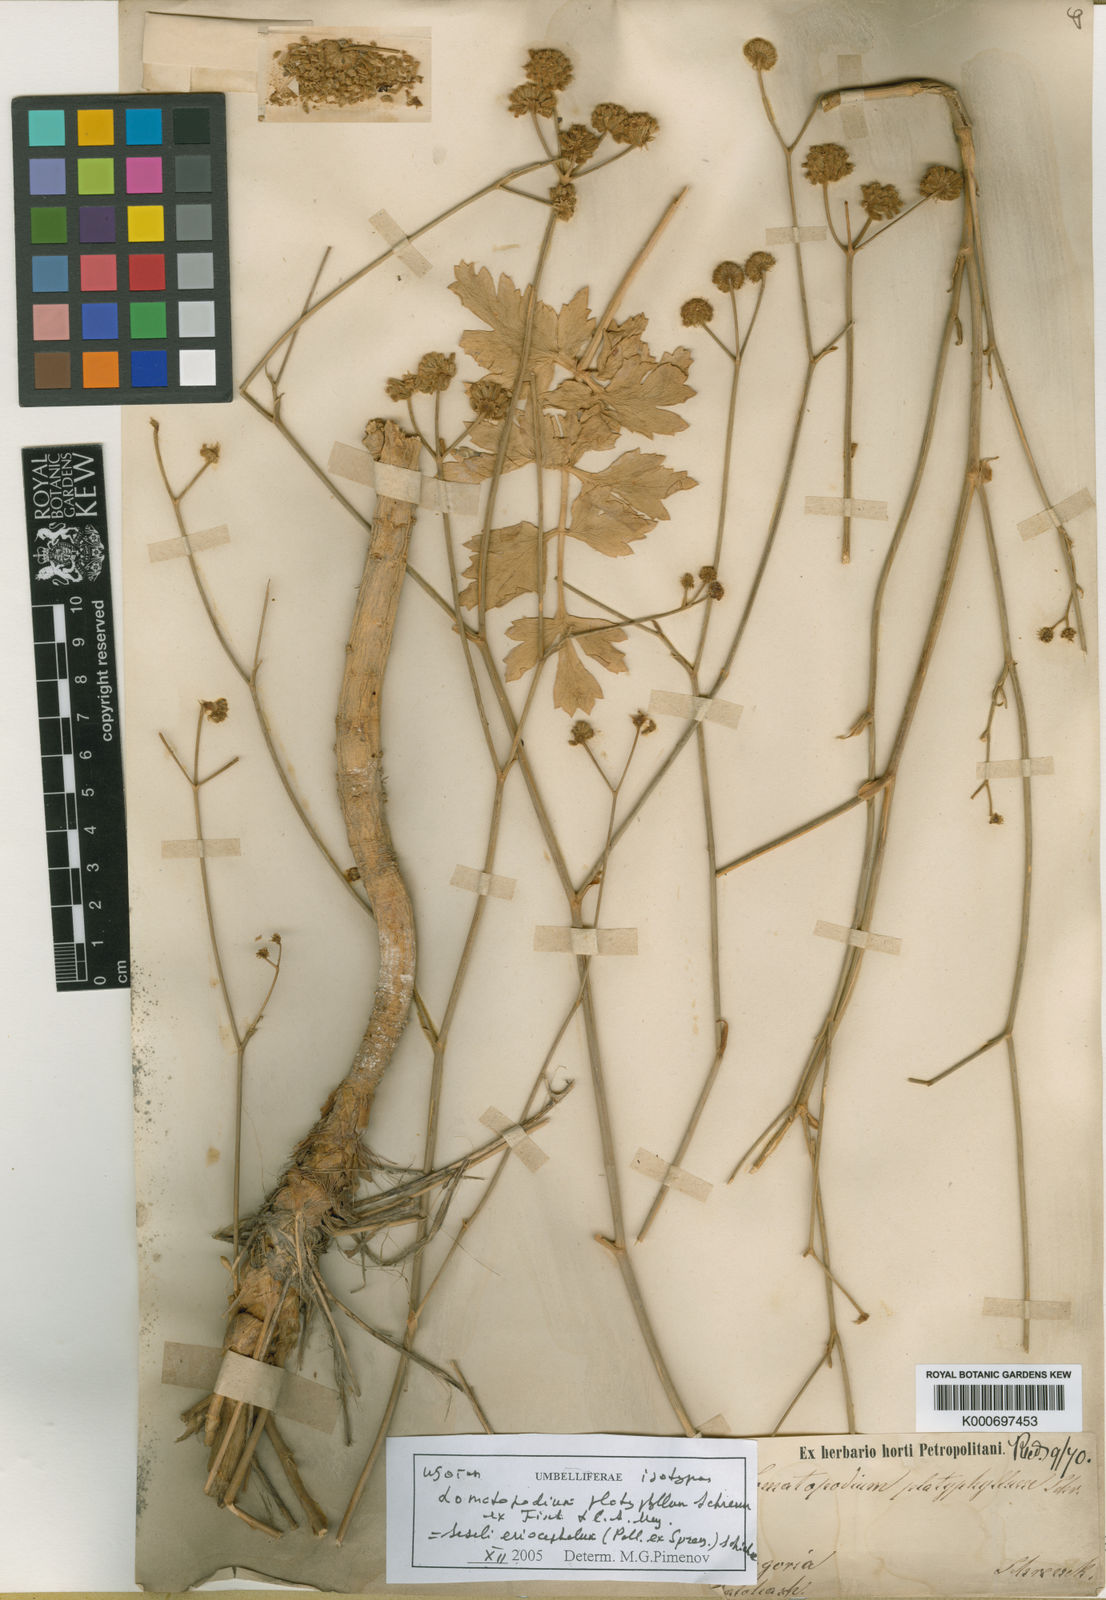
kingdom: Plantae
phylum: Tracheophyta
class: Magnoliopsida
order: Apiales
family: Apiaceae
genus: Seseli
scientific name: Seseli
